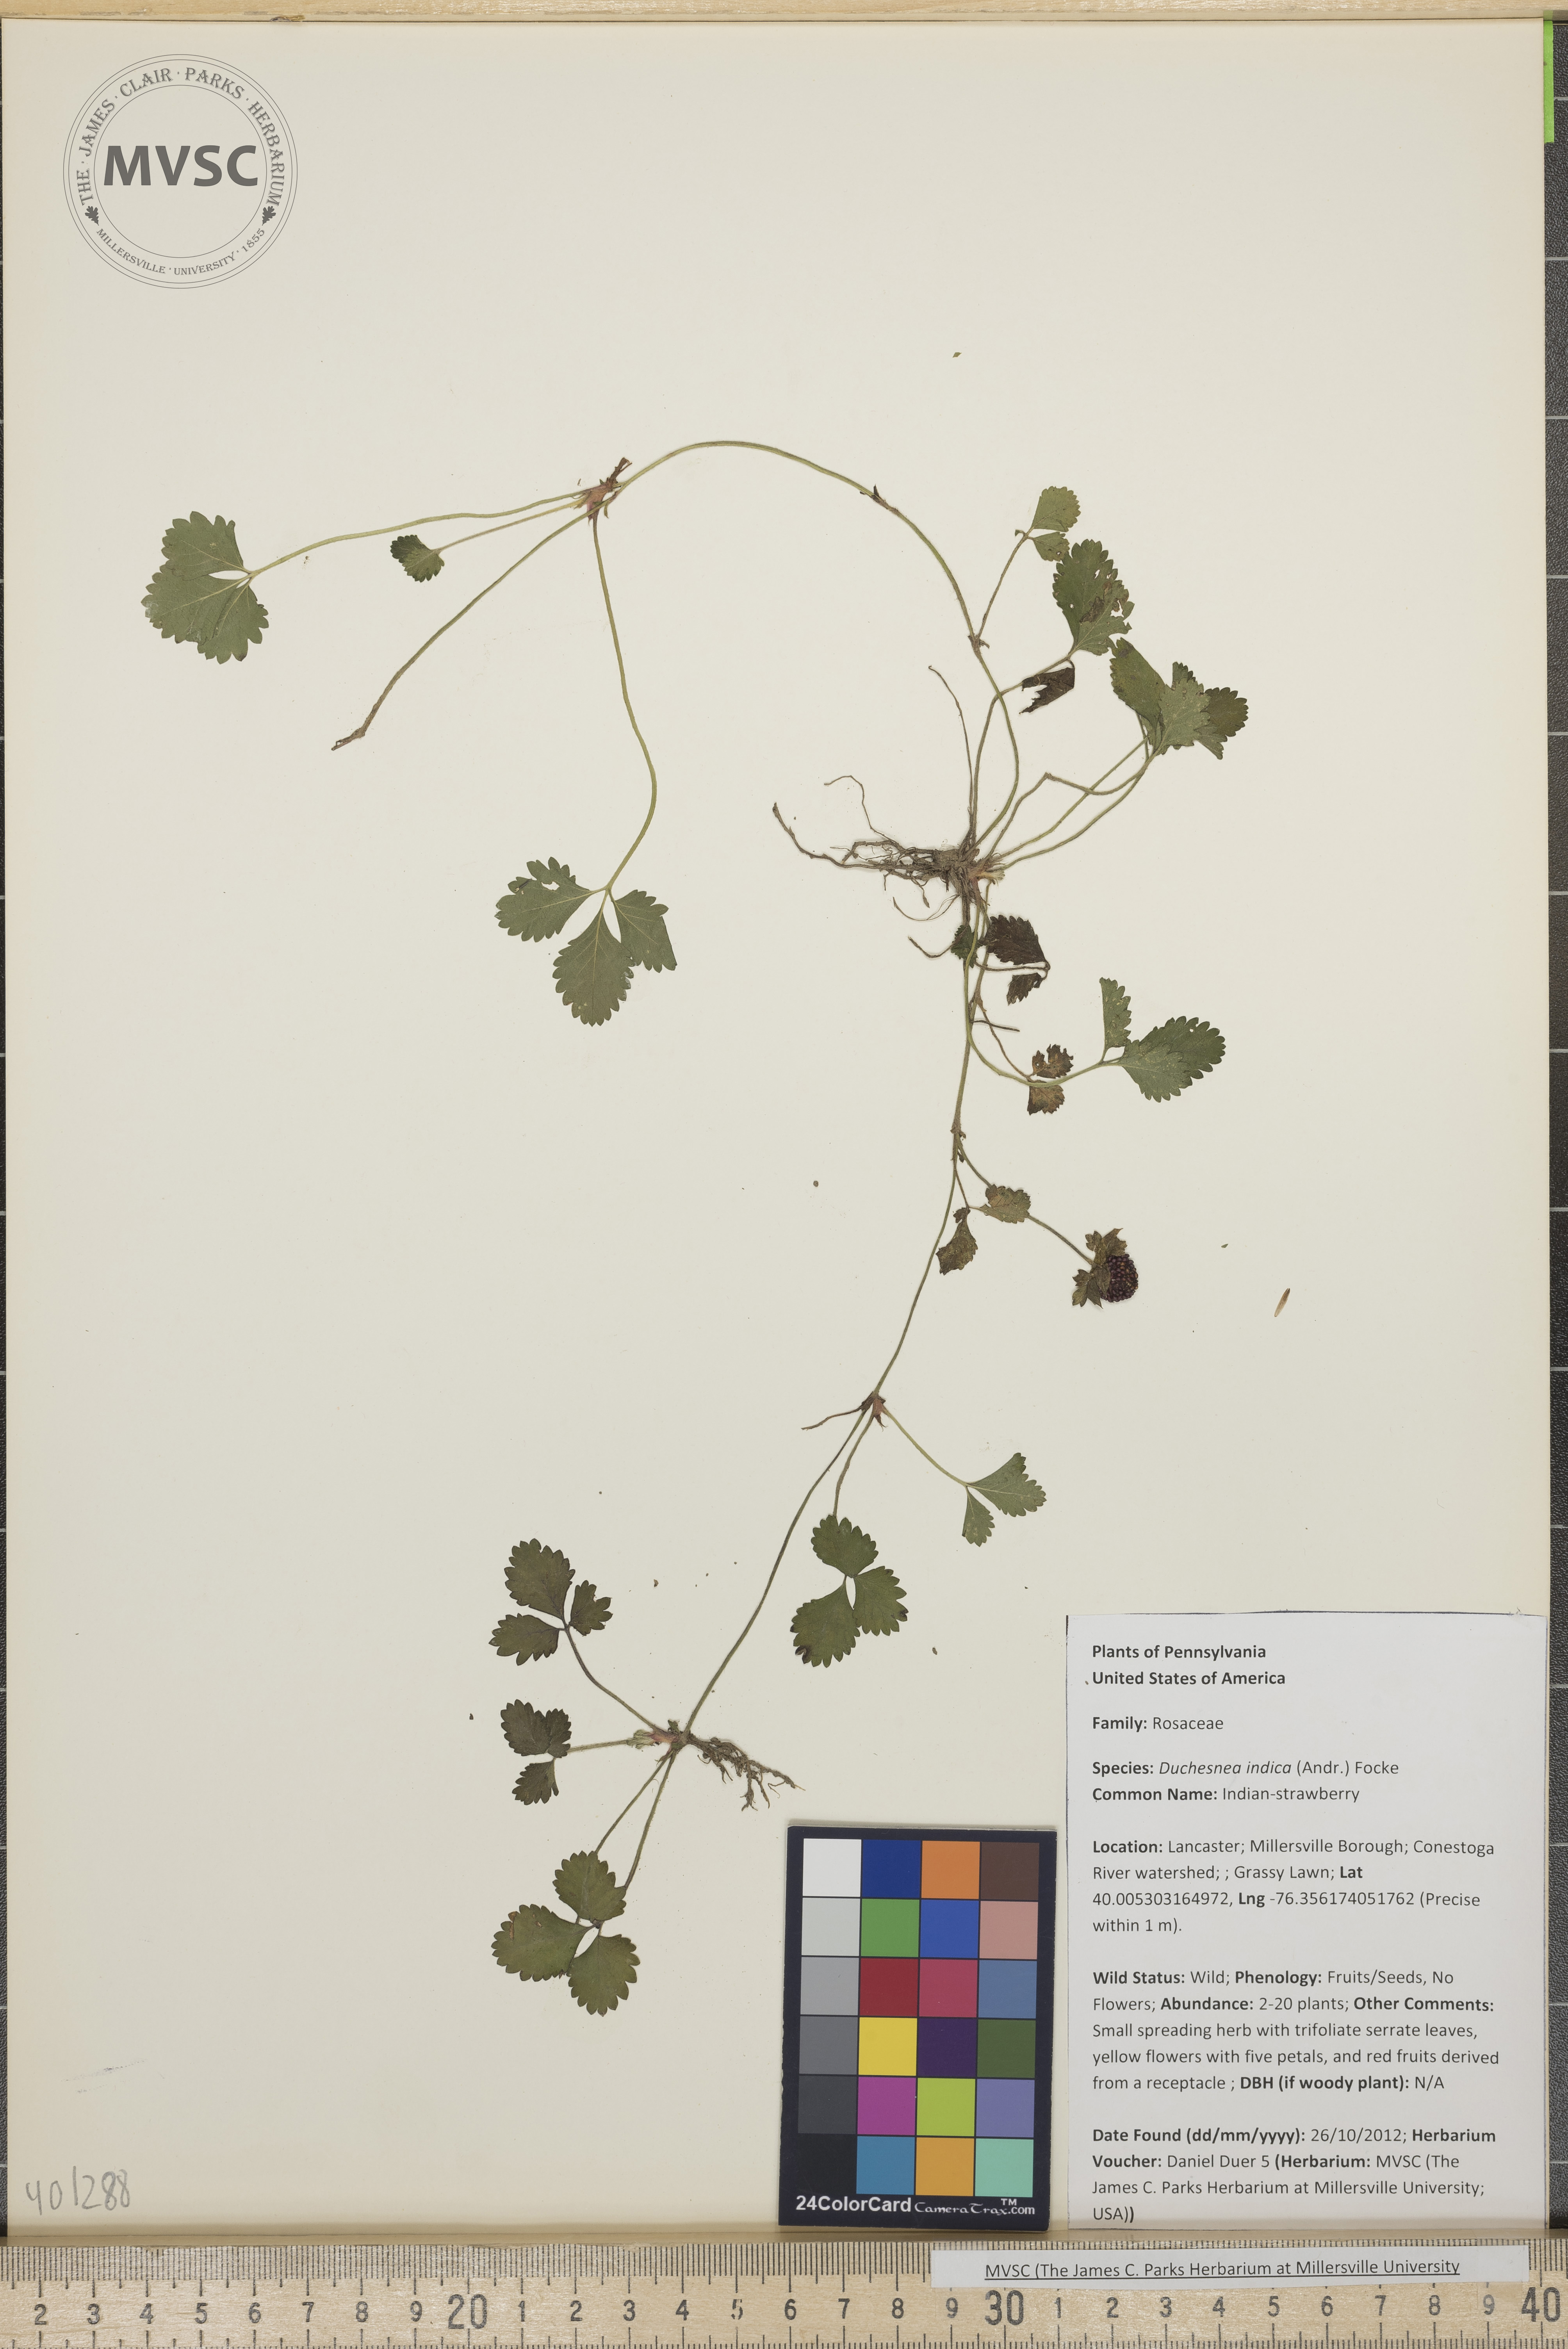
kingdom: Plantae
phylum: Tracheophyta
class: Magnoliopsida
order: Rosales
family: Rosaceae
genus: Potentilla
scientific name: Potentilla indica
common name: Indian-strawberry
